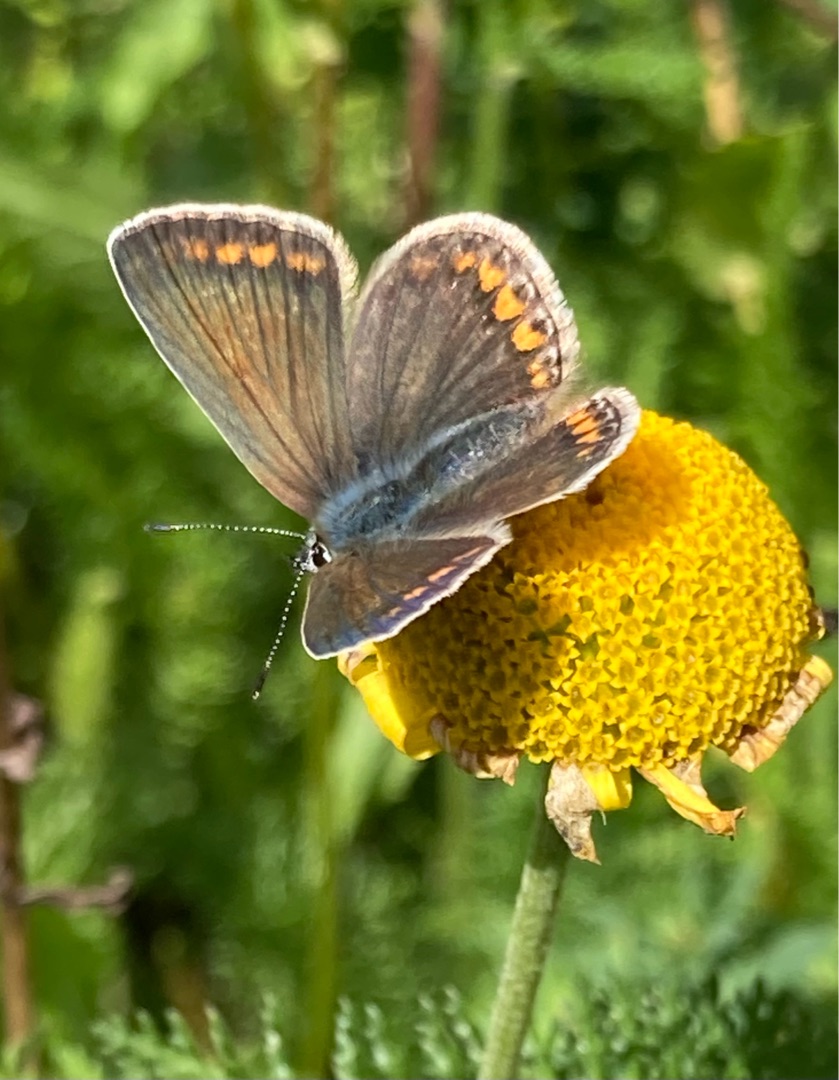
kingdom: Animalia
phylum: Arthropoda
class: Insecta
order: Lepidoptera
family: Lycaenidae
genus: Polyommatus
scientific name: Polyommatus icarus
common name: Almindelig blåfugl
